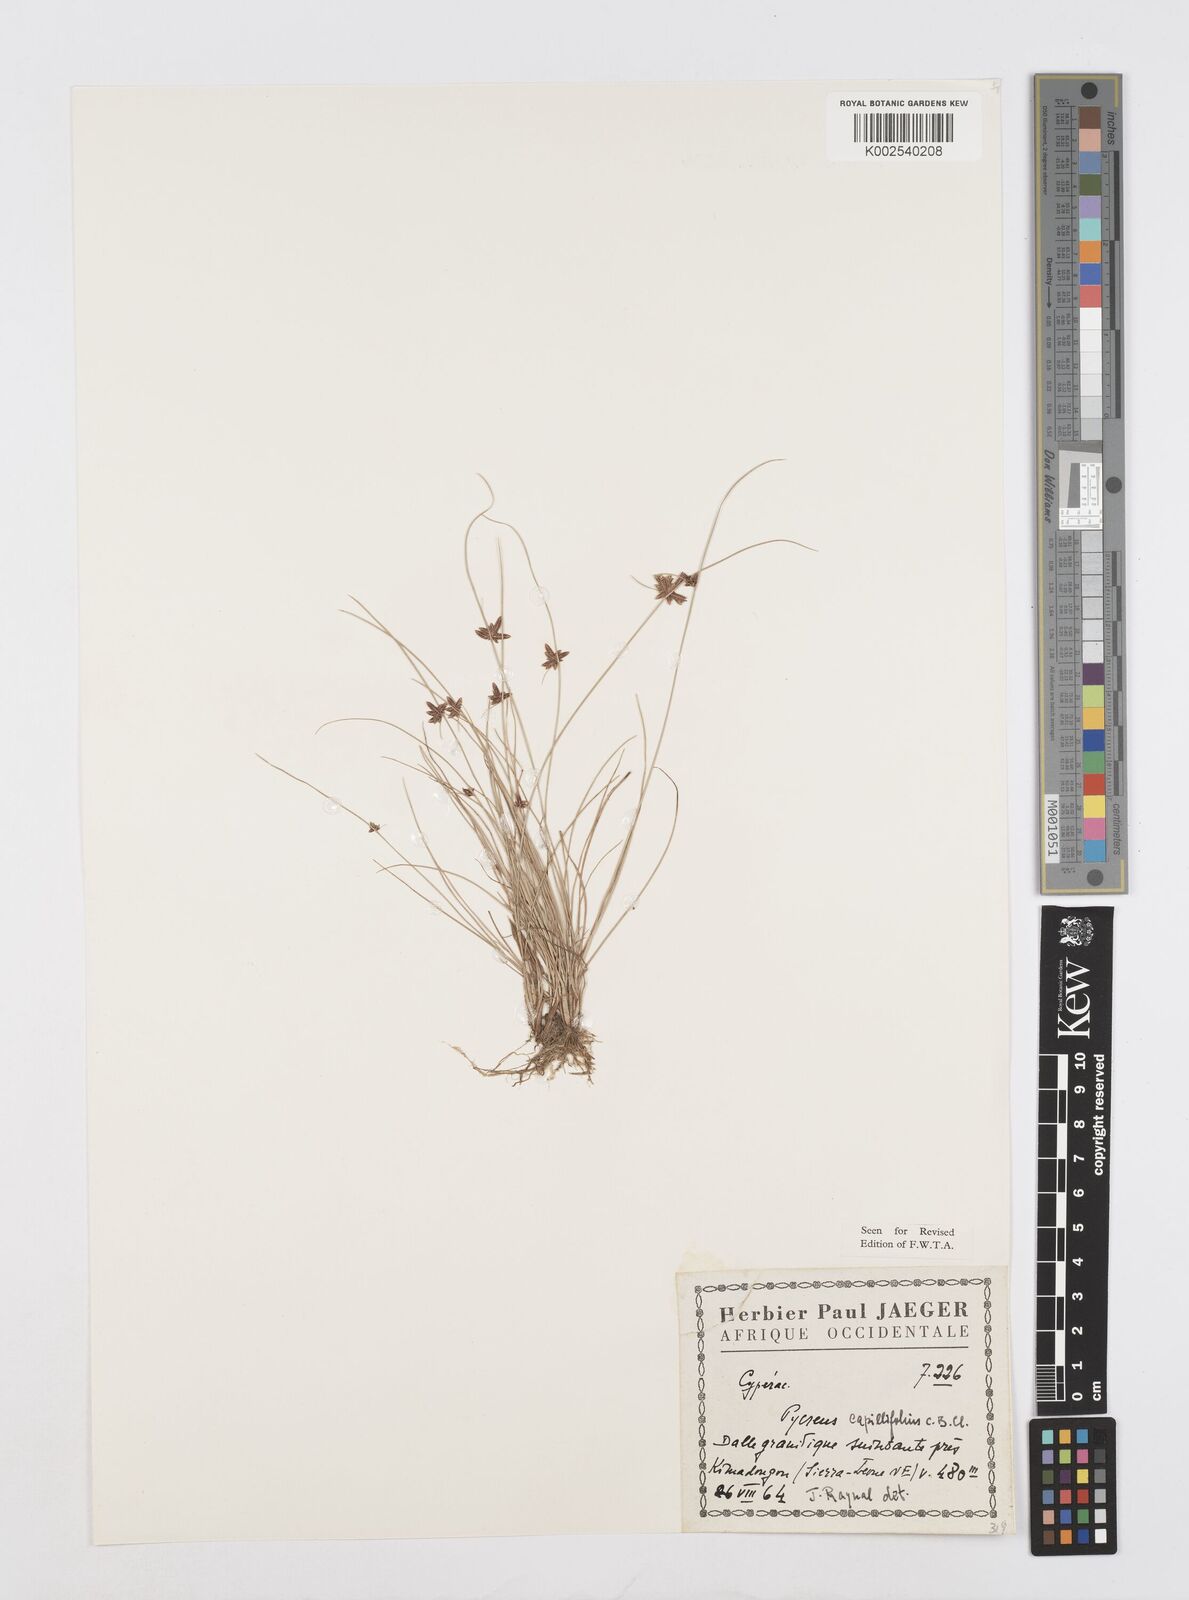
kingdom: Plantae
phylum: Tracheophyta
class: Liliopsida
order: Poales
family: Cyperaceae
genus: Cyperus
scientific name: Cyperus capillifolius
